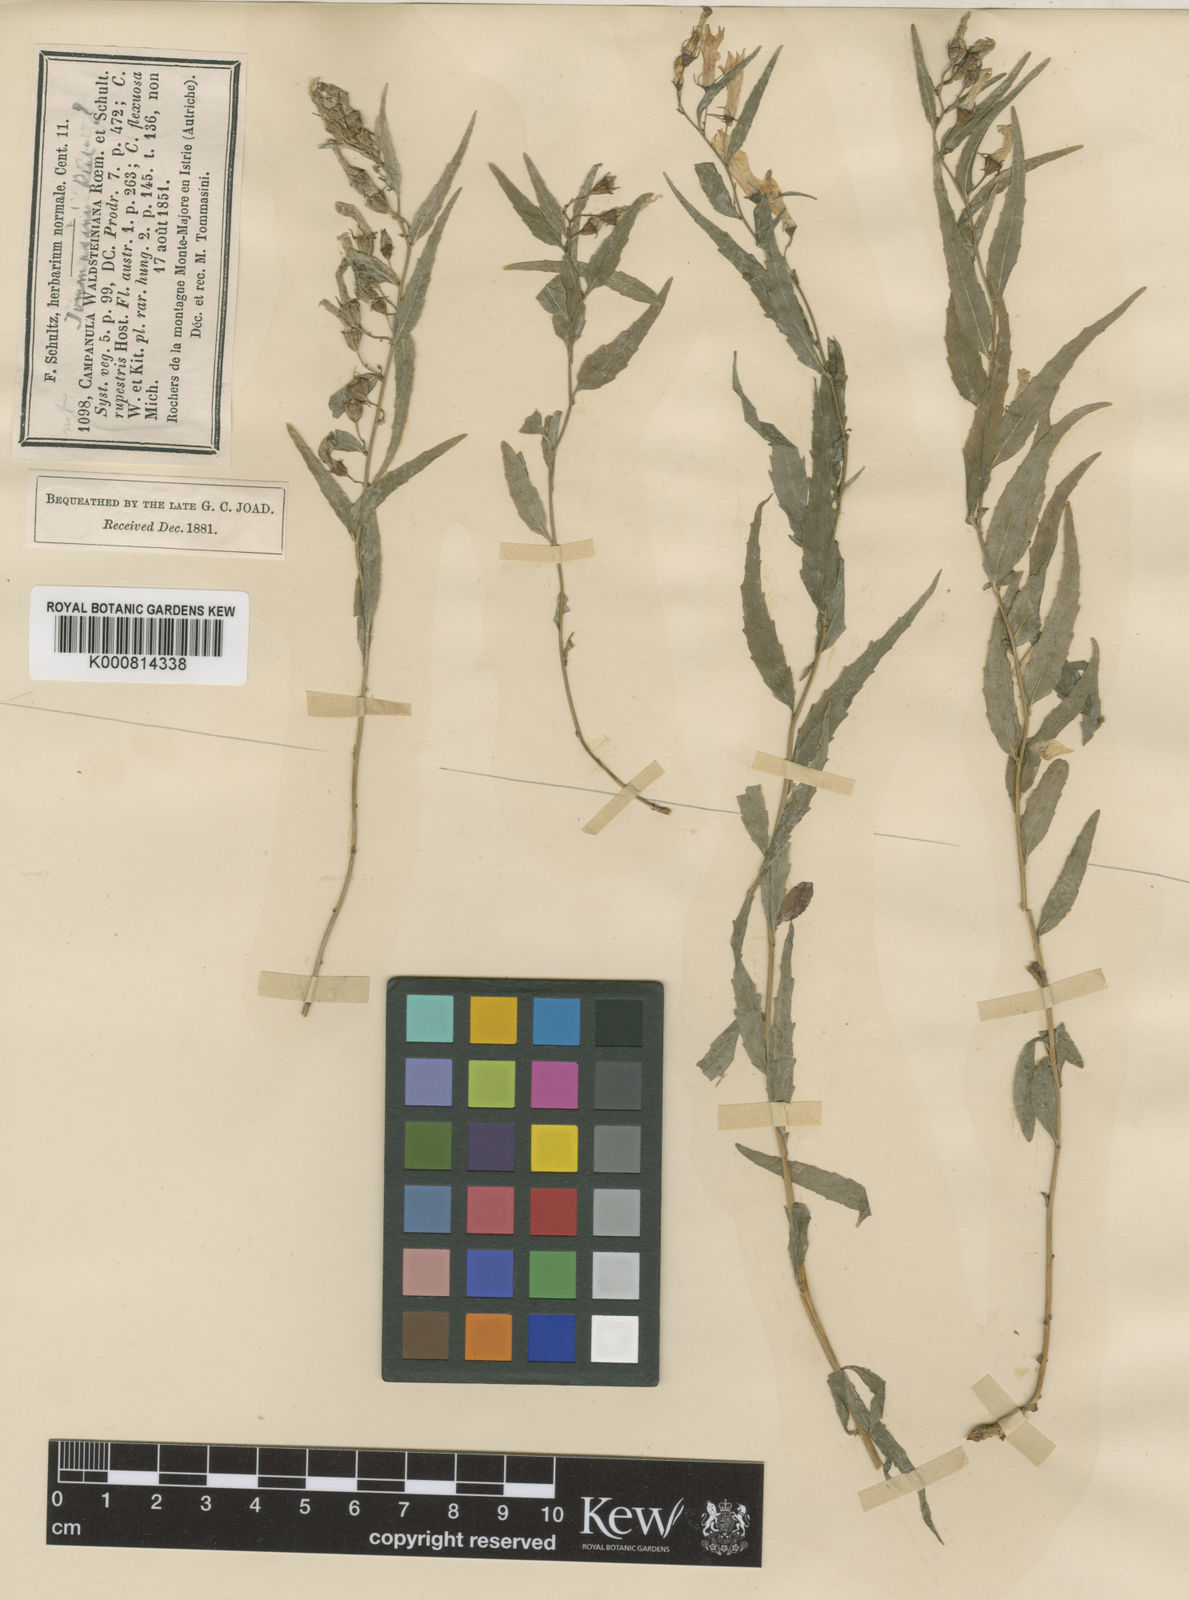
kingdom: Plantae
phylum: Tracheophyta
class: Magnoliopsida
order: Asterales
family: Campanulaceae
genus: Campanula
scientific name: Campanula
